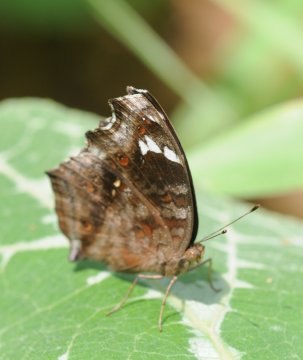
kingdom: Animalia
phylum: Arthropoda
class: Insecta
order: Lepidoptera
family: Nymphalidae
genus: Junonia
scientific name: Junonia natalica
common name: Natal Pansy
